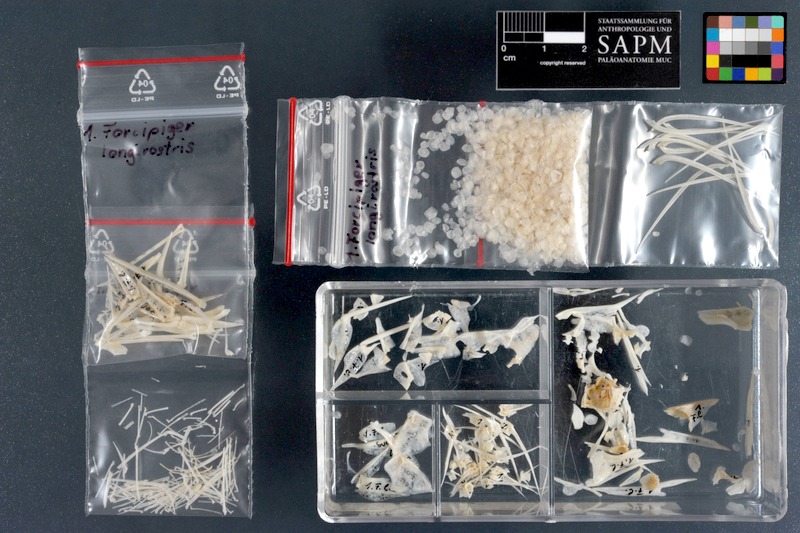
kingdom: Animalia
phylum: Chordata
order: Perciformes
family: Chaetodontidae
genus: Forcipiger
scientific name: Forcipiger longirostris
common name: Longnose butterflyfish
